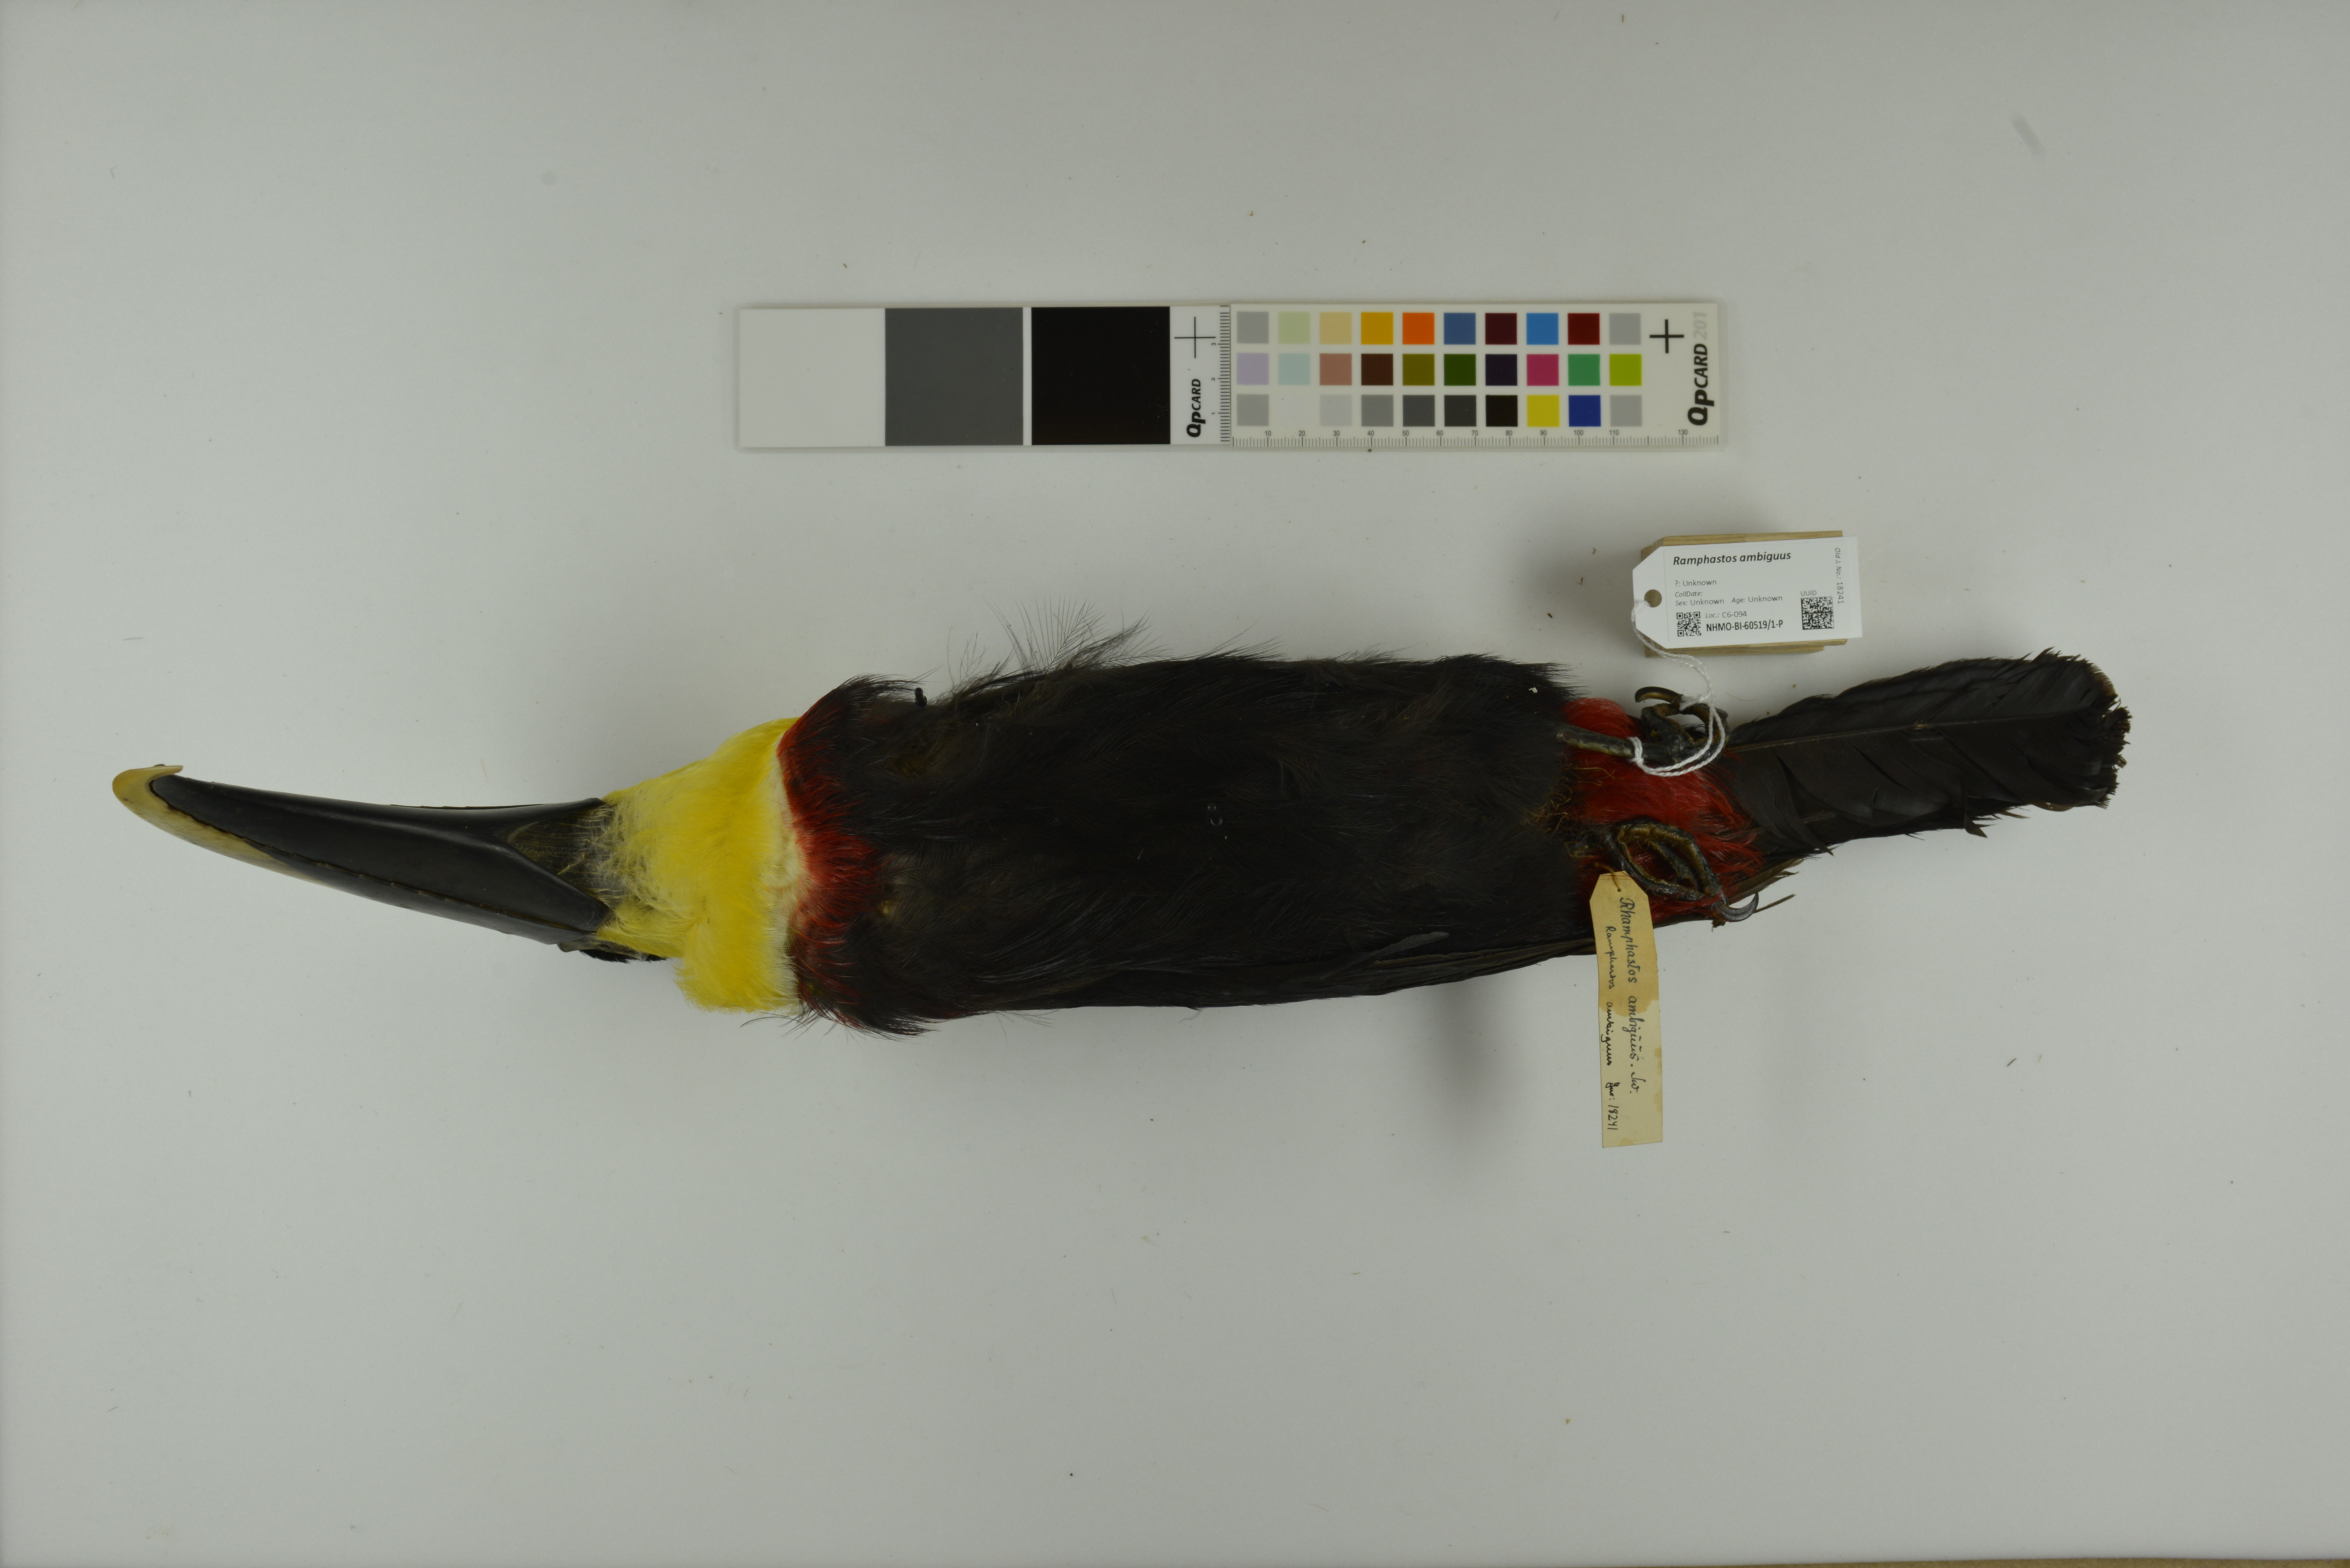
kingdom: Animalia
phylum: Chordata
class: Aves
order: Piciformes
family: Ramphastidae
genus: Ramphastos
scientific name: Ramphastos ambiguus
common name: Yellow-throated toucan
